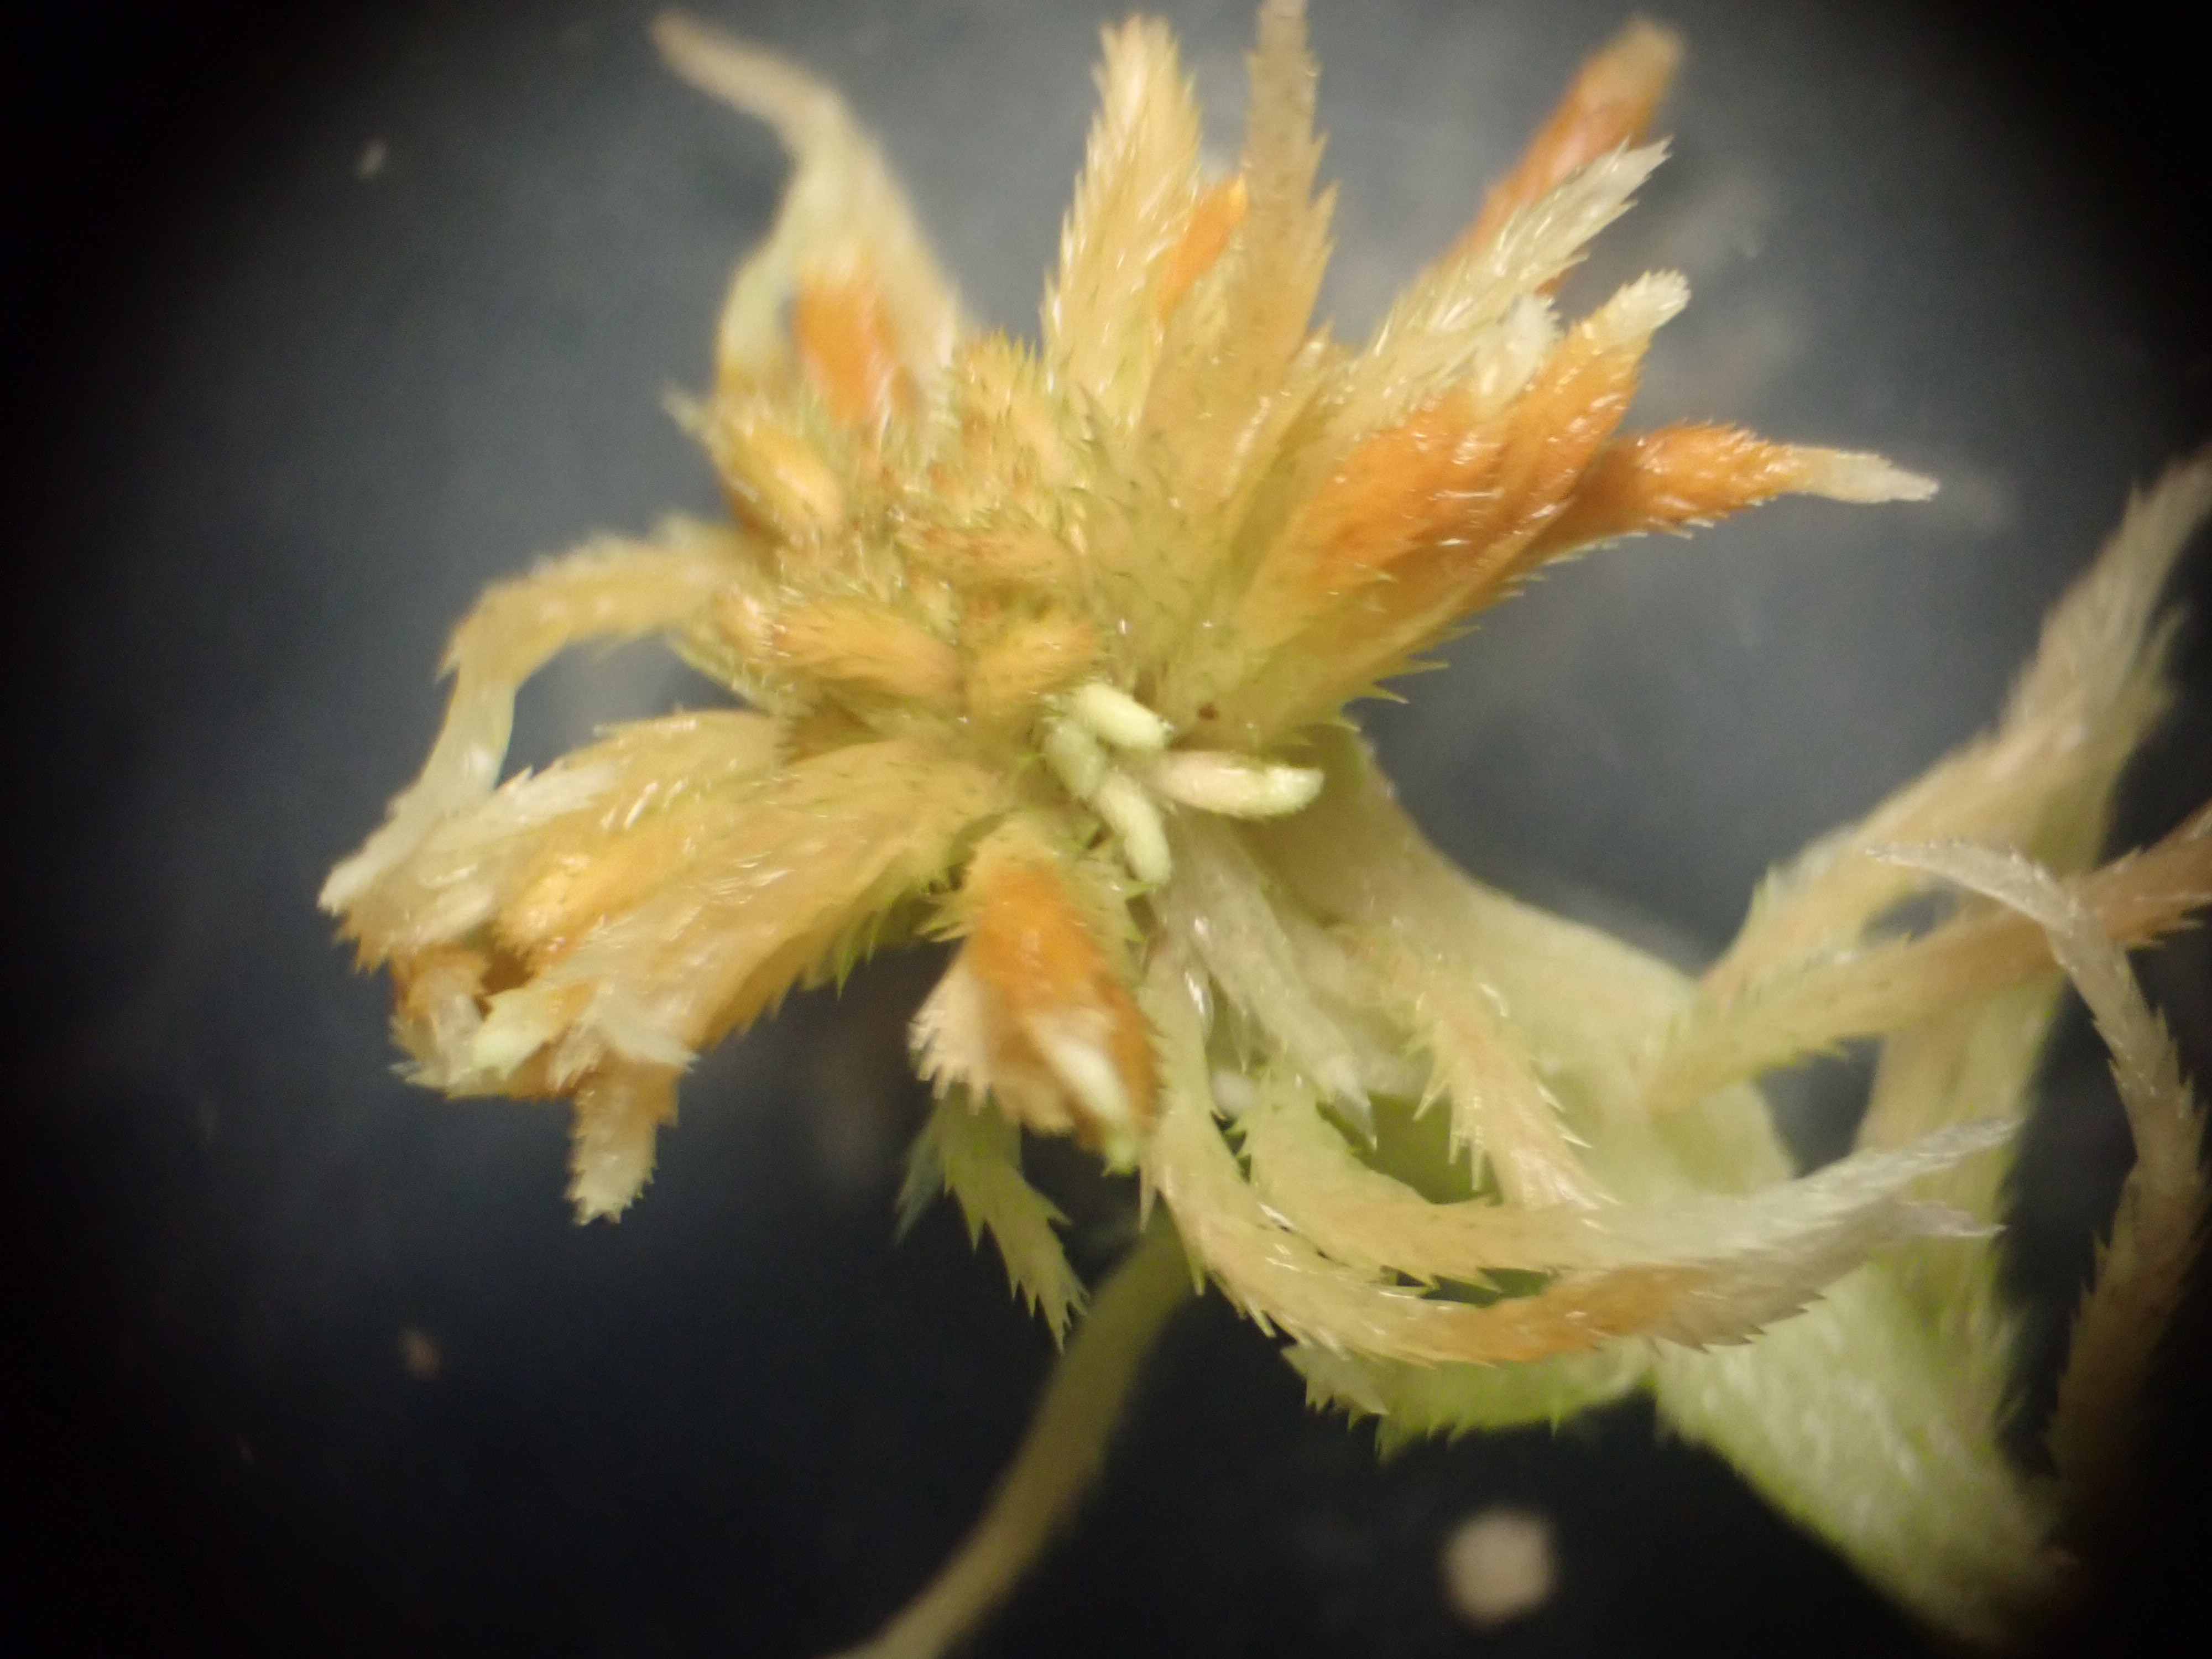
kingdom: Plantae
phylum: Bryophyta
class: Sphagnopsida
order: Sphagnales
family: Sphagnaceae
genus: Sphagnum
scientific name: Sphagnum fallax
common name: Brodspids-tørvemos
